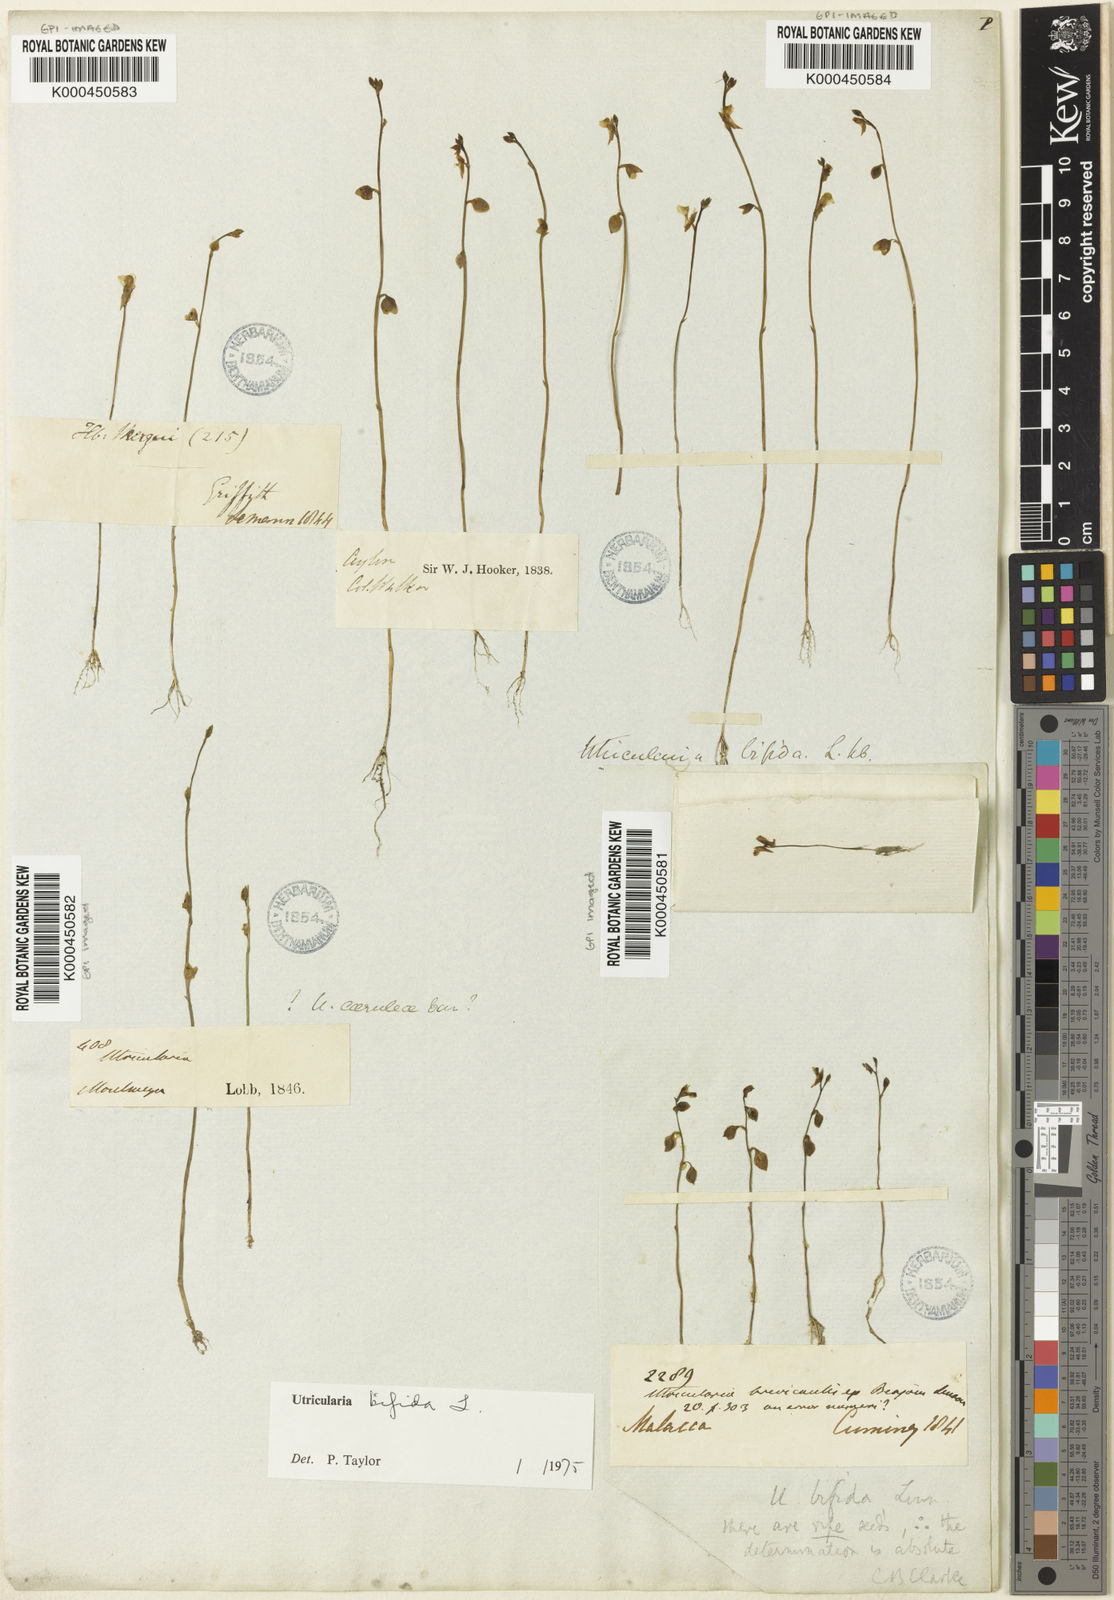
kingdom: Plantae
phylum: Tracheophyta
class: Magnoliopsida
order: Lamiales
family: Lentibulariaceae
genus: Utricularia
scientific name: Utricularia bifida
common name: Bifid bladderwort
